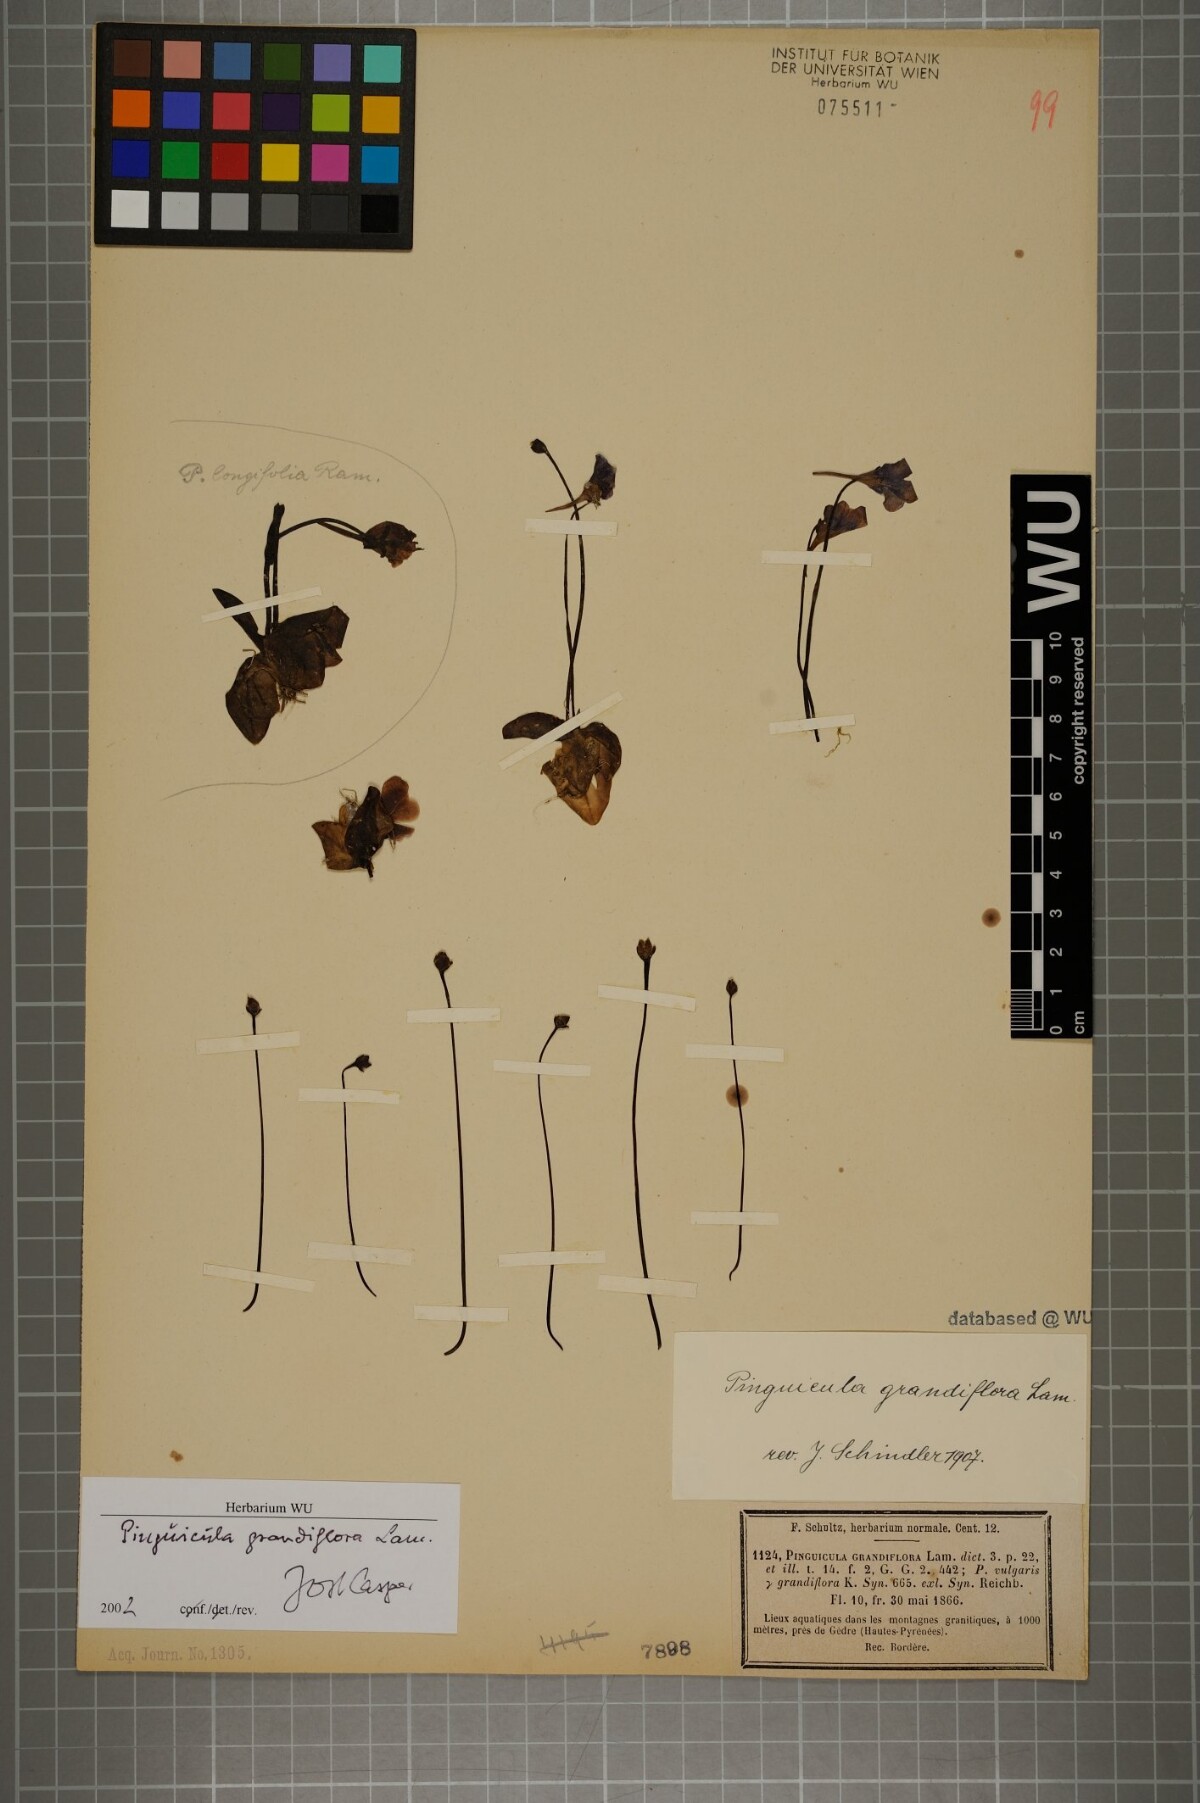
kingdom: Plantae
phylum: Tracheophyta
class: Magnoliopsida
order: Lamiales
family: Lentibulariaceae
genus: Pinguicula
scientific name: Pinguicula grandiflora
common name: Large-flowered butterwort
